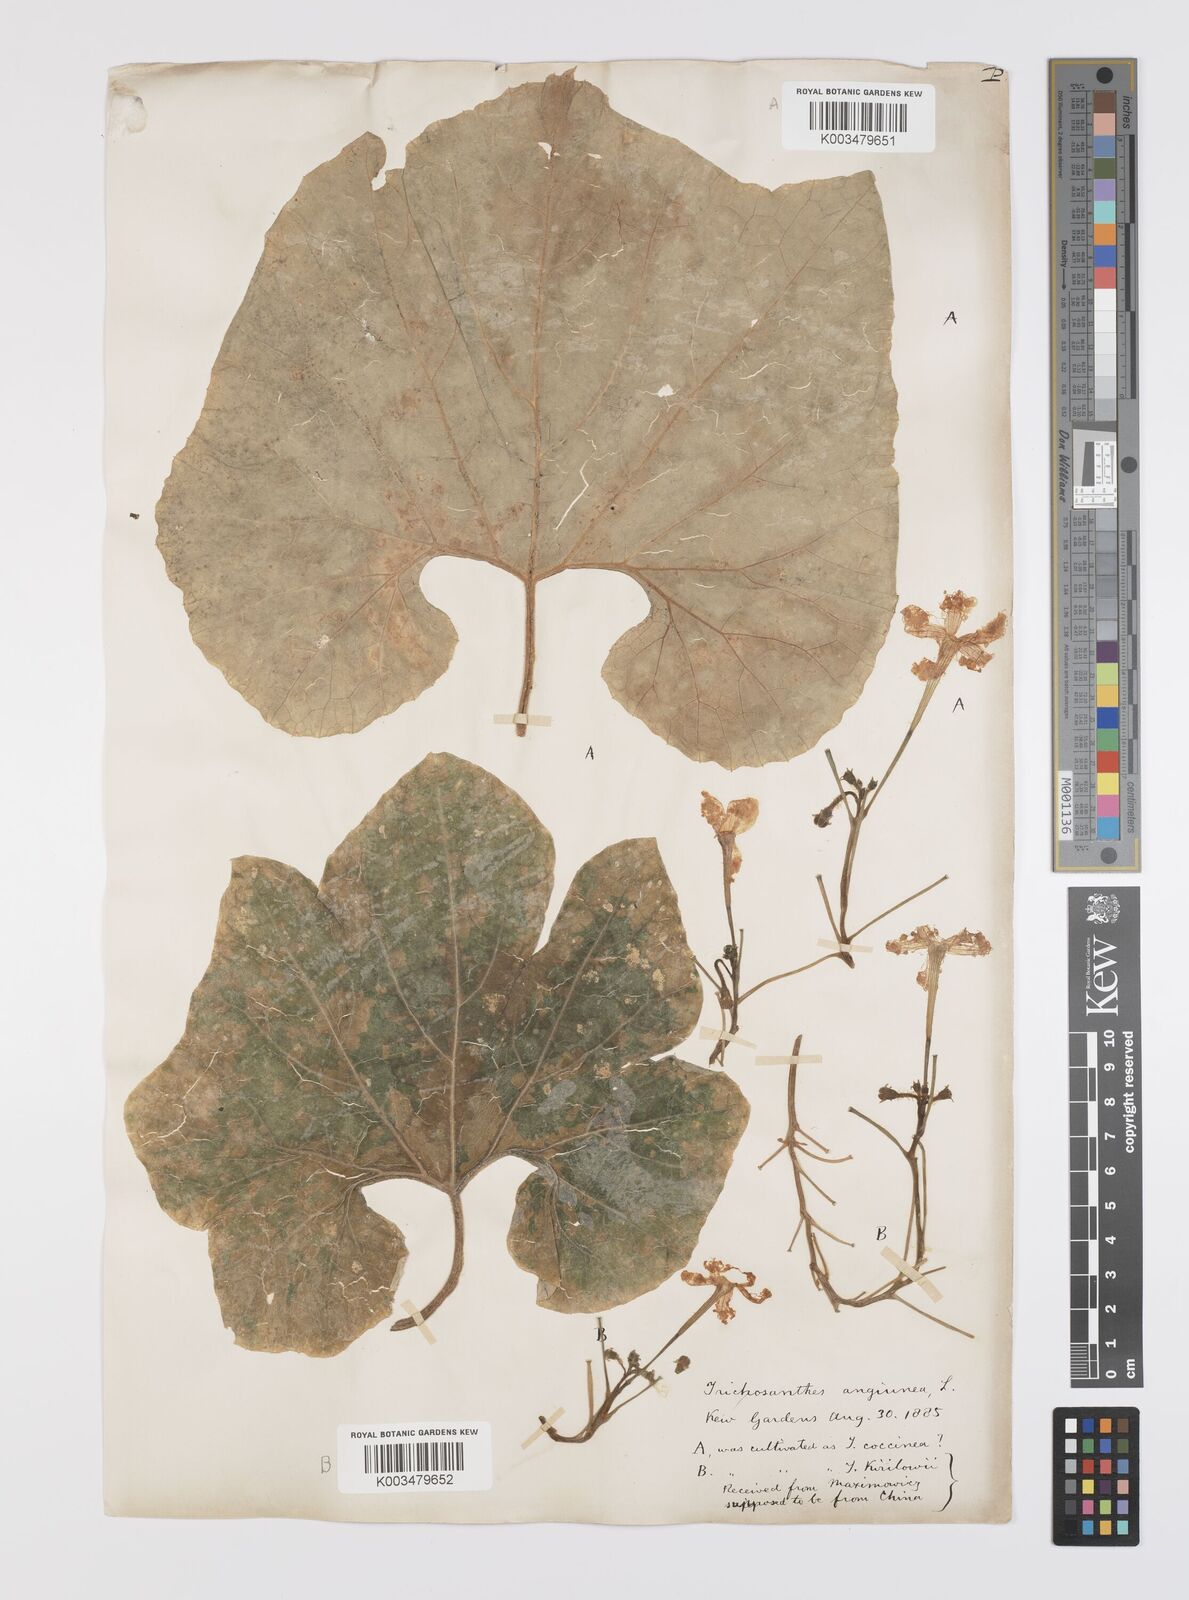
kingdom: Plantae
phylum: Tracheophyta
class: Magnoliopsida
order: Cucurbitales
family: Cucurbitaceae
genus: Trichosanthes
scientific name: Trichosanthes cucumerina
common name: Snakegourd
